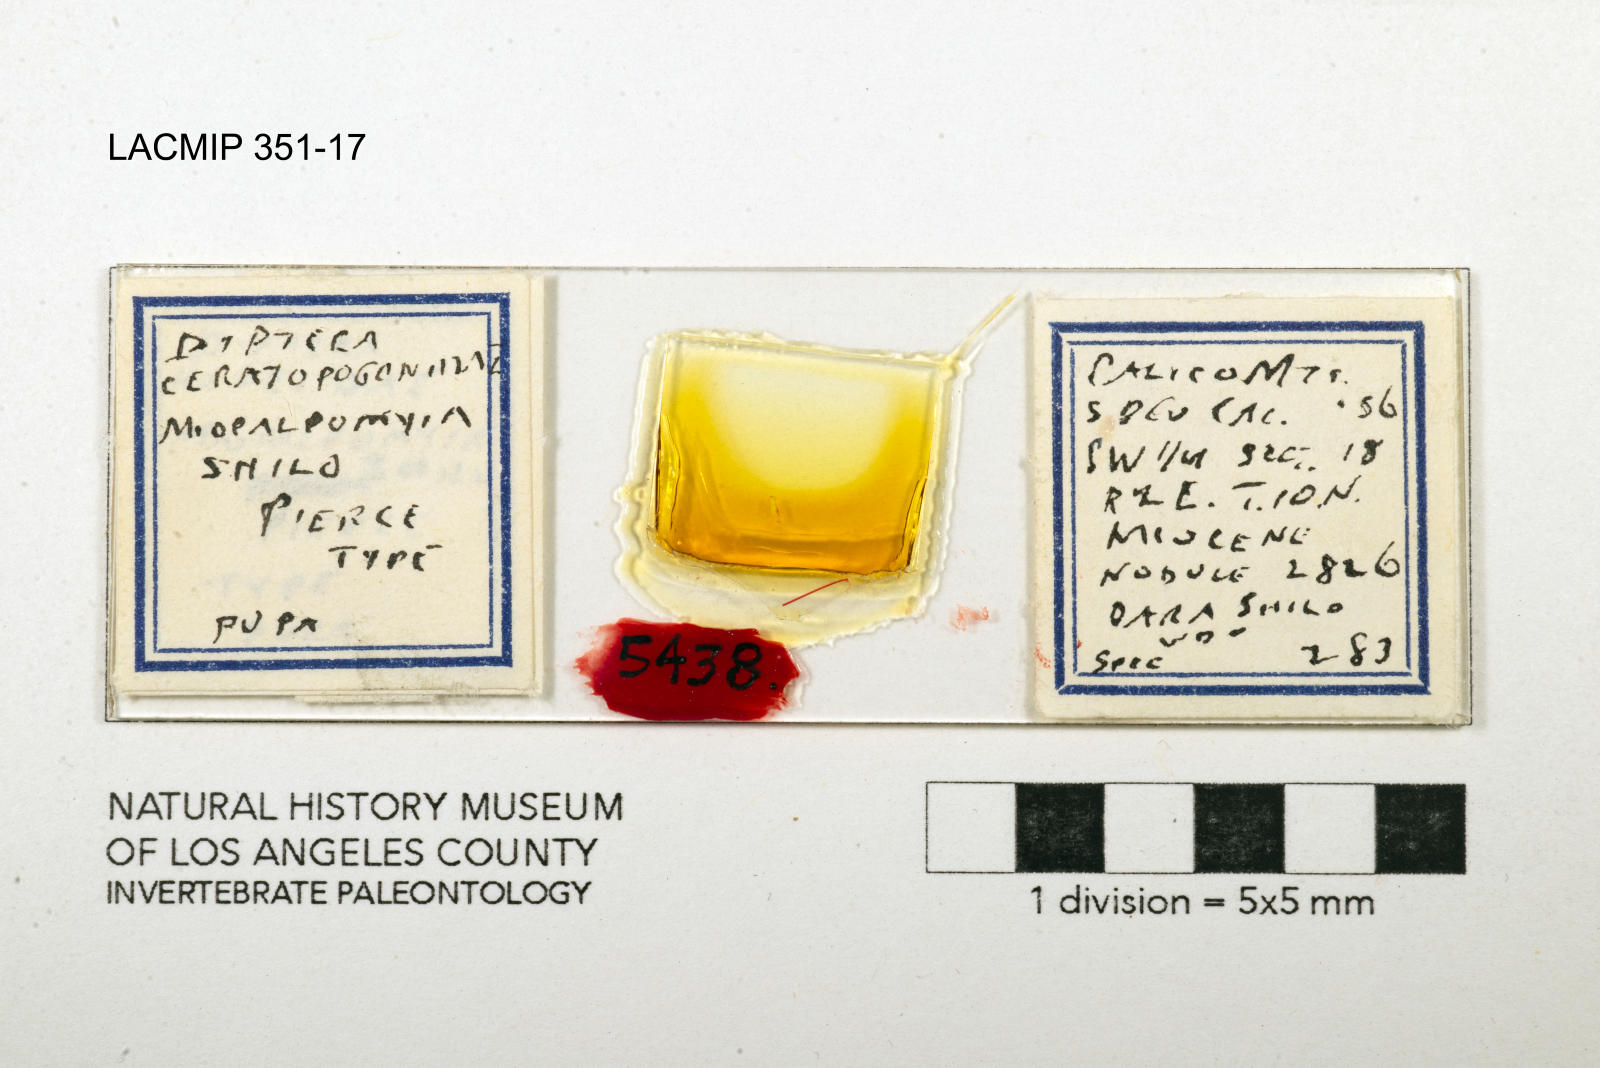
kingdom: Animalia
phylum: Arthropoda
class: Insecta
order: Diptera
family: Ceratopogonidae
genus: Palpomyia
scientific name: Palpomyia shilo
